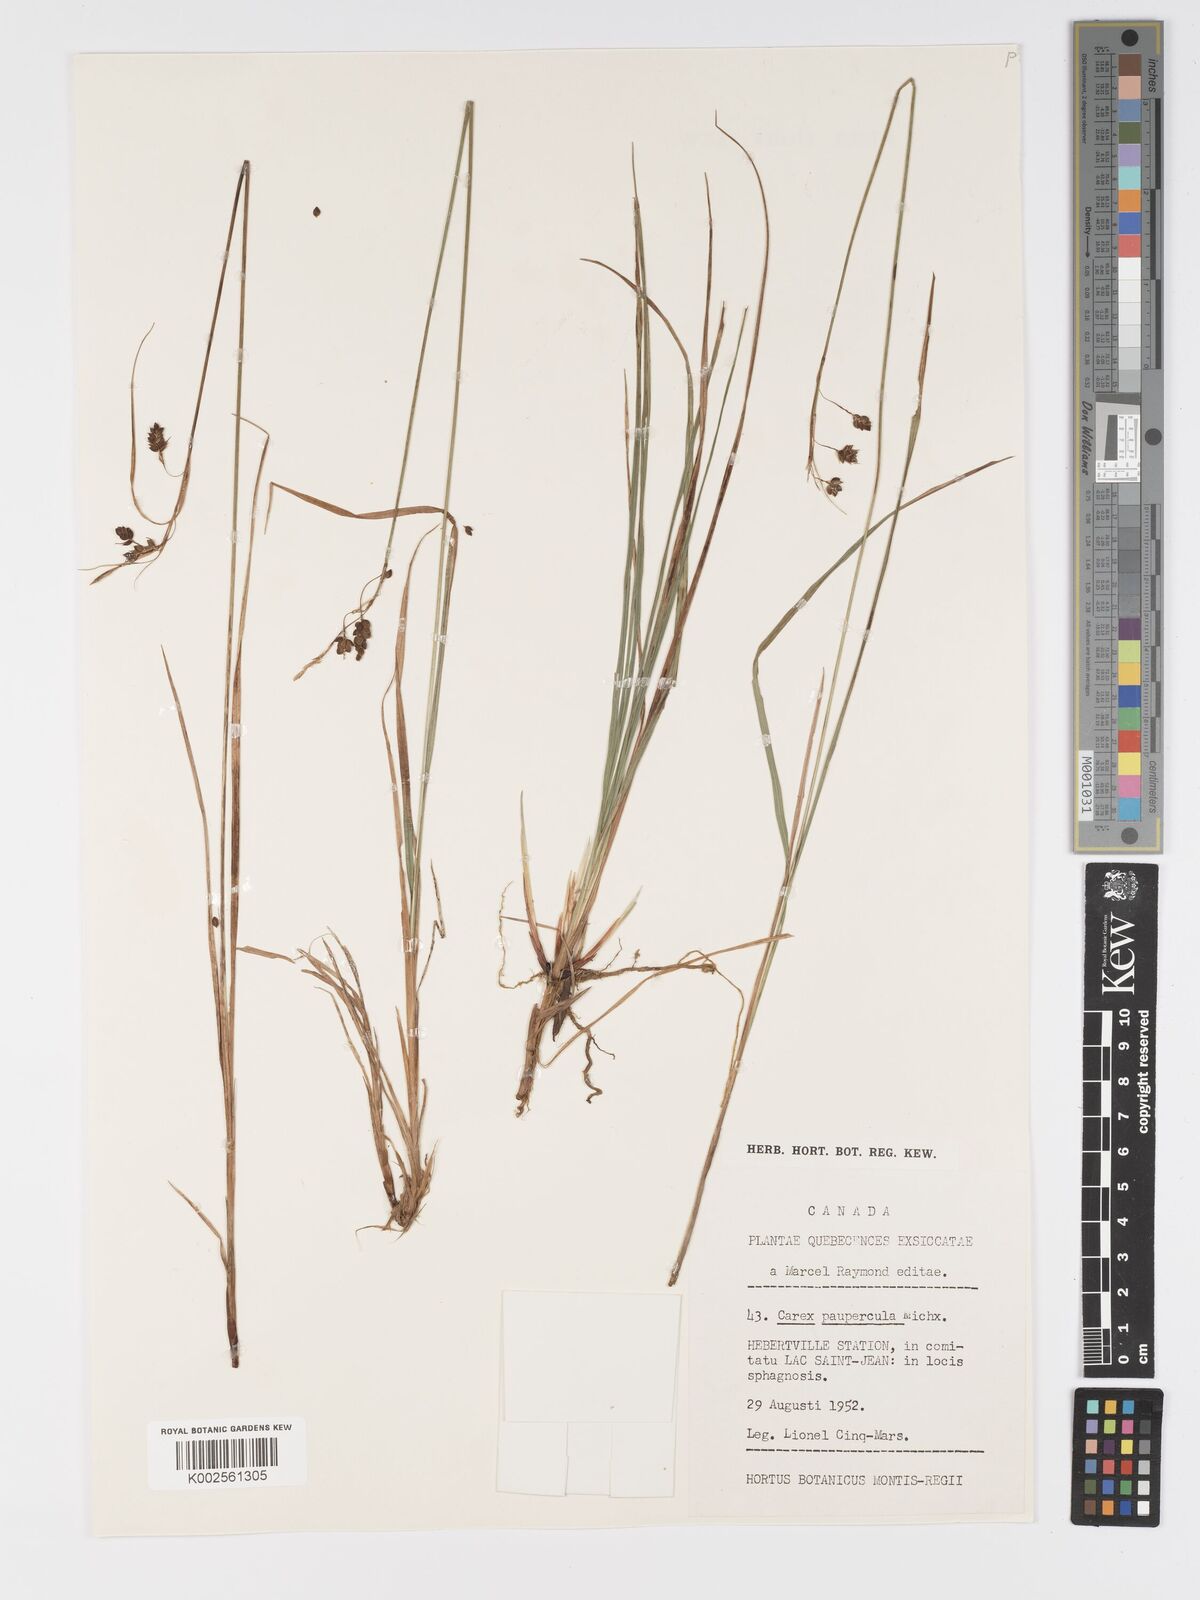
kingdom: Plantae
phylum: Tracheophyta
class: Liliopsida
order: Poales
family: Cyperaceae
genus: Carex
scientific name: Carex magellanica
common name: Bog sedge
